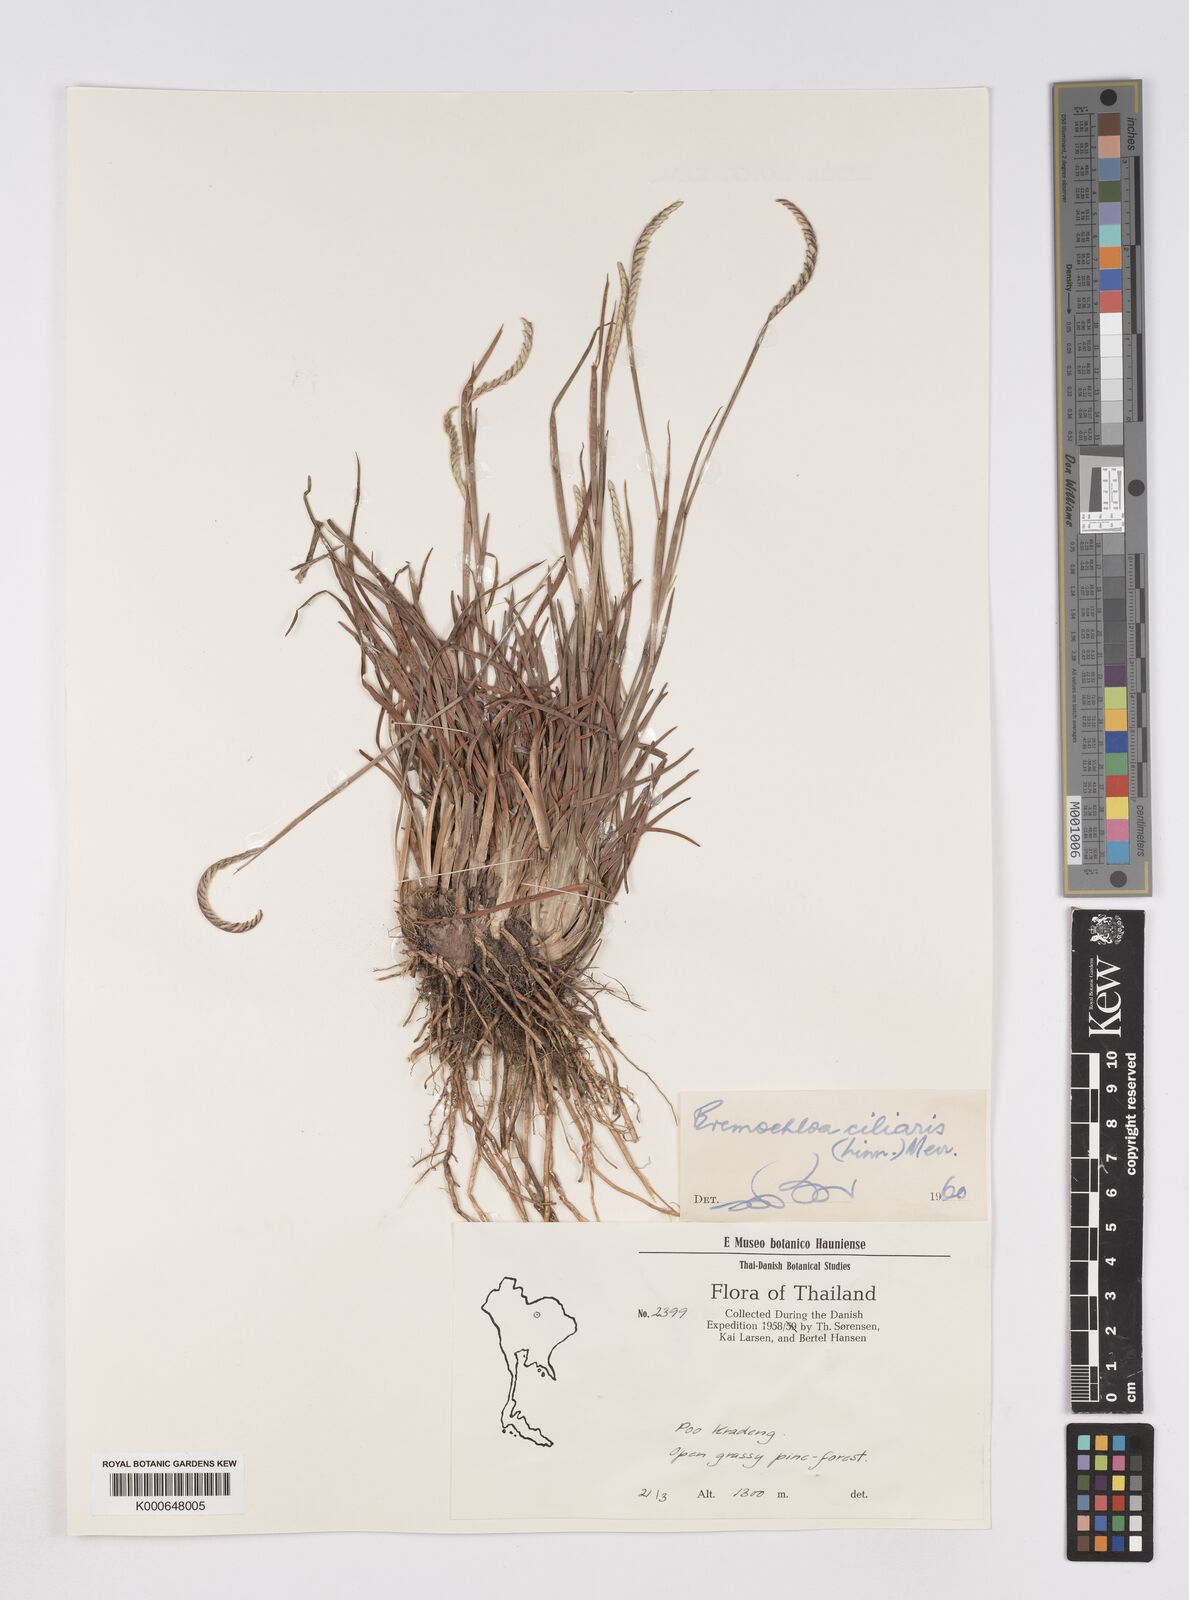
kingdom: Plantae
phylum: Tracheophyta
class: Liliopsida
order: Poales
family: Poaceae
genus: Eremochloa
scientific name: Eremochloa ciliaris
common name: Fringed centipede grass
